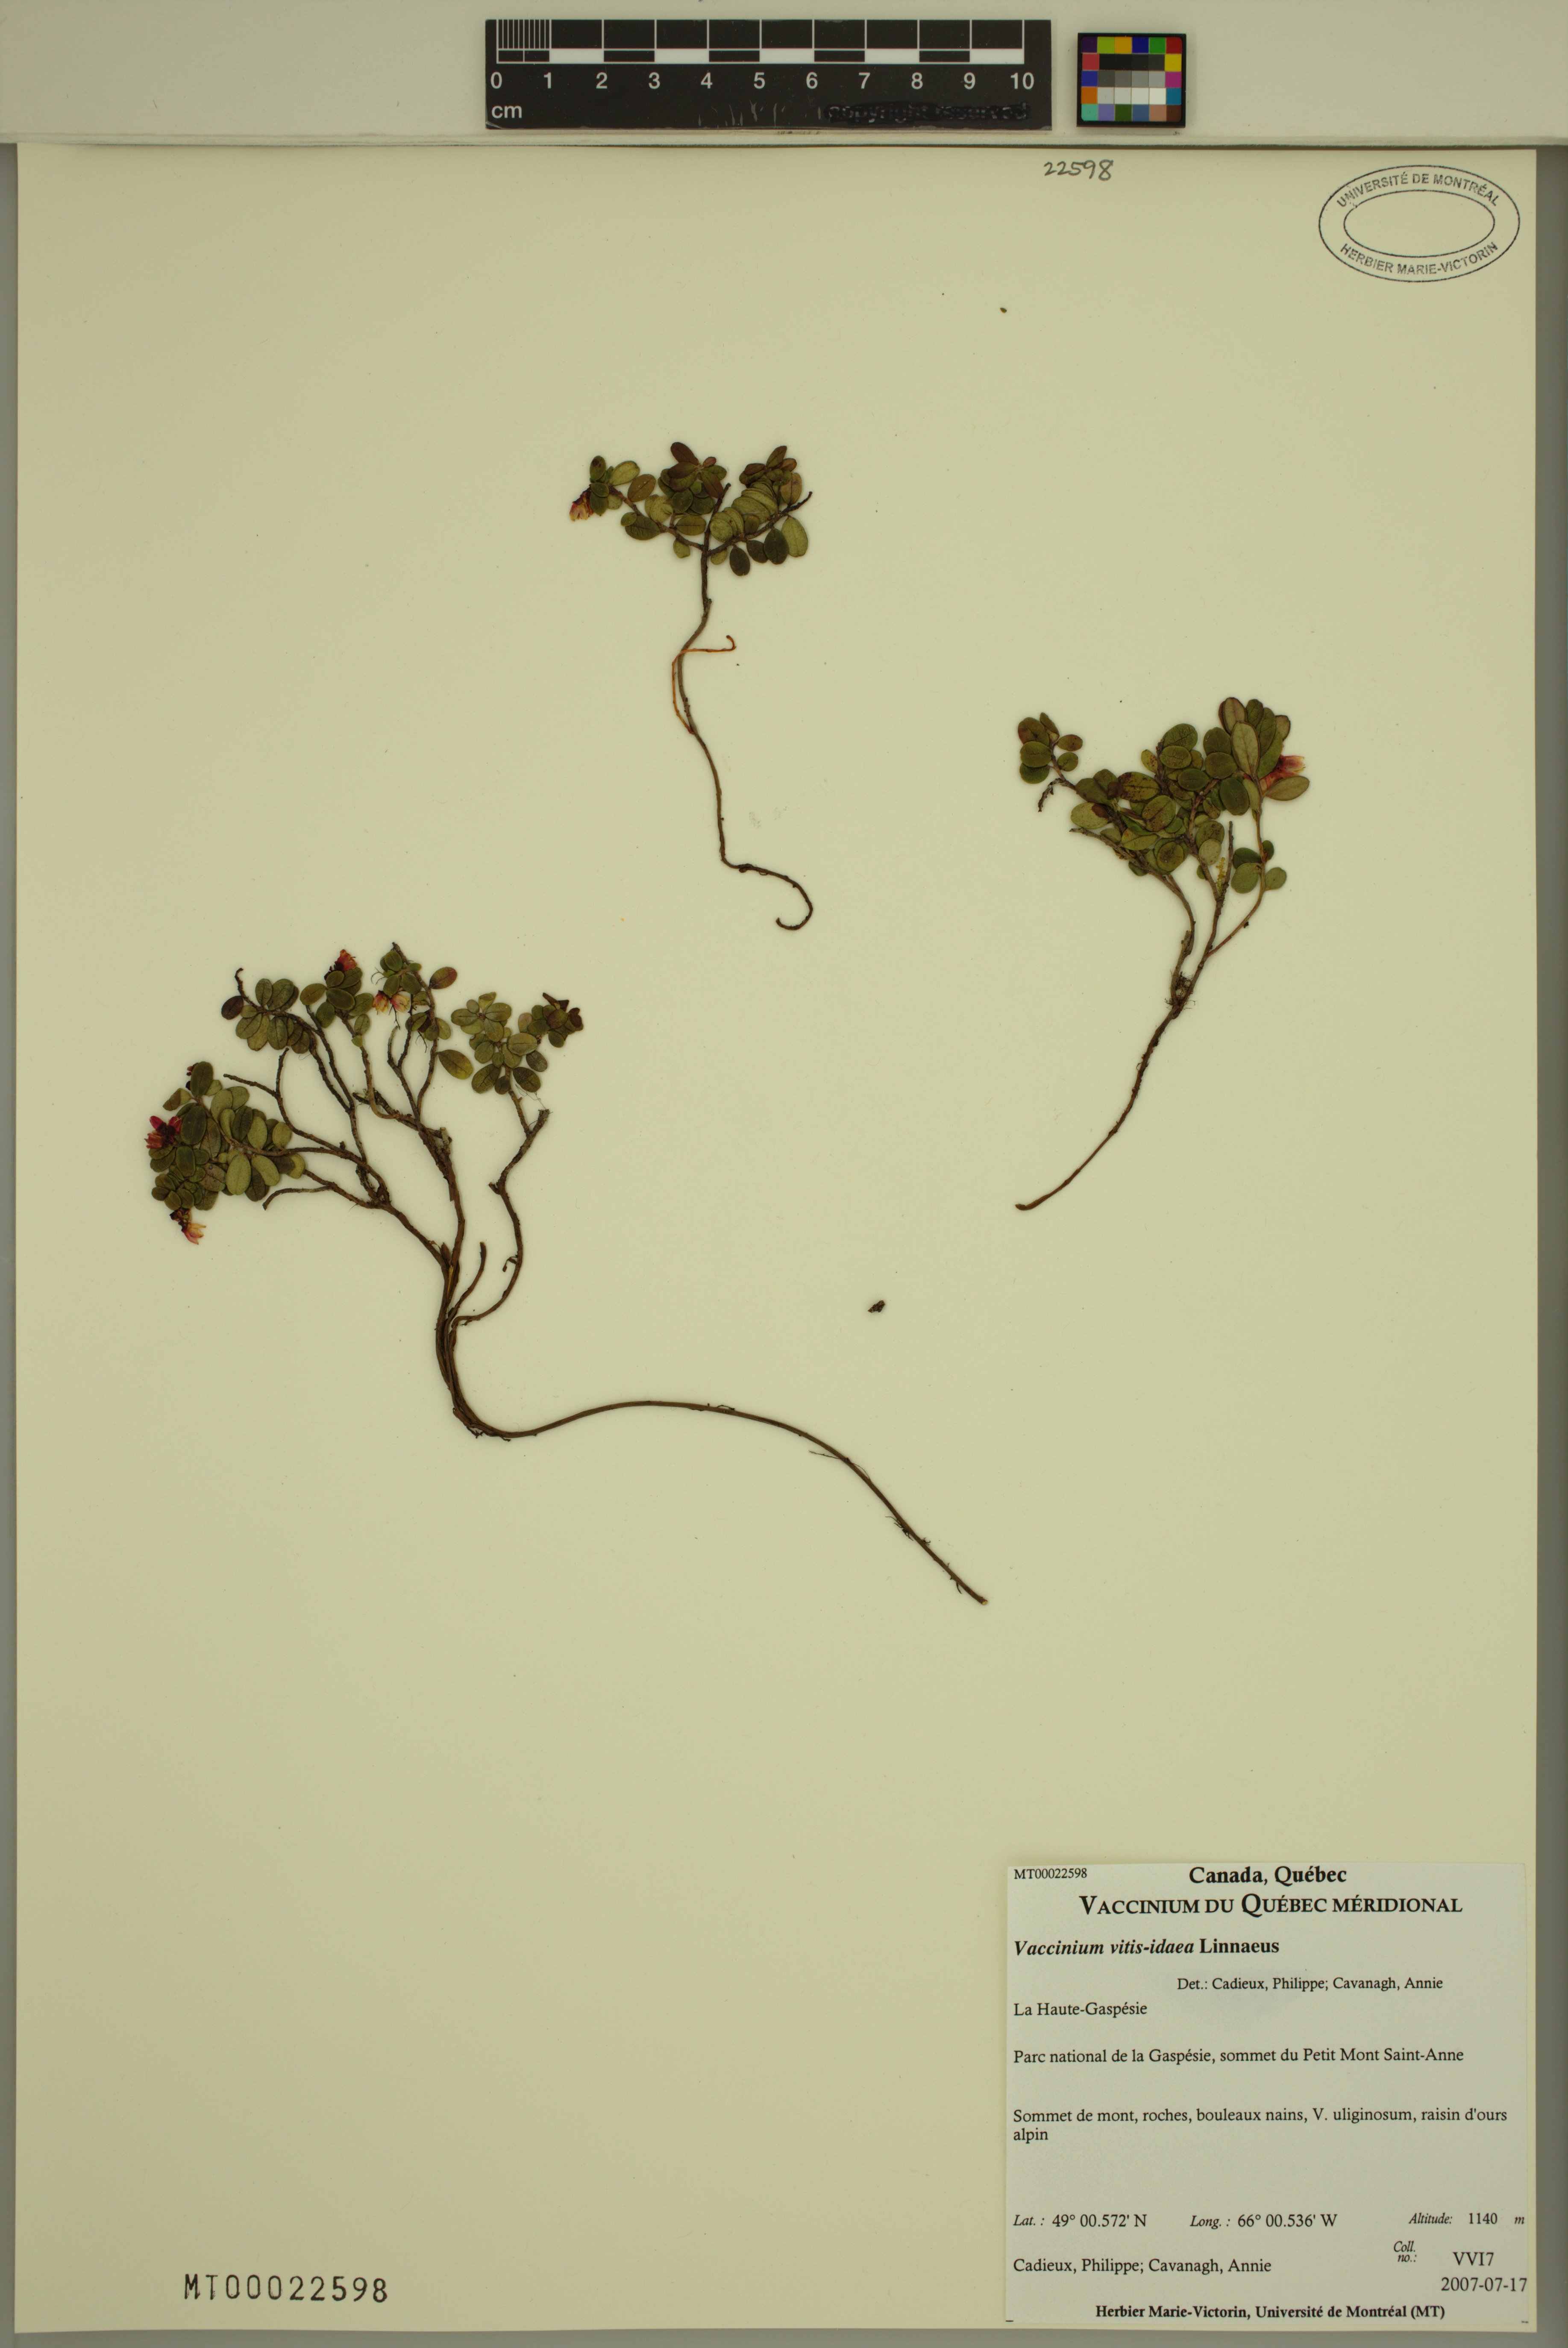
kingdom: Plantae
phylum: Tracheophyta
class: Magnoliopsida
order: Ericales
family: Ericaceae
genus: Vaccinium
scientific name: Vaccinium vitis-idaea
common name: Cowberry
